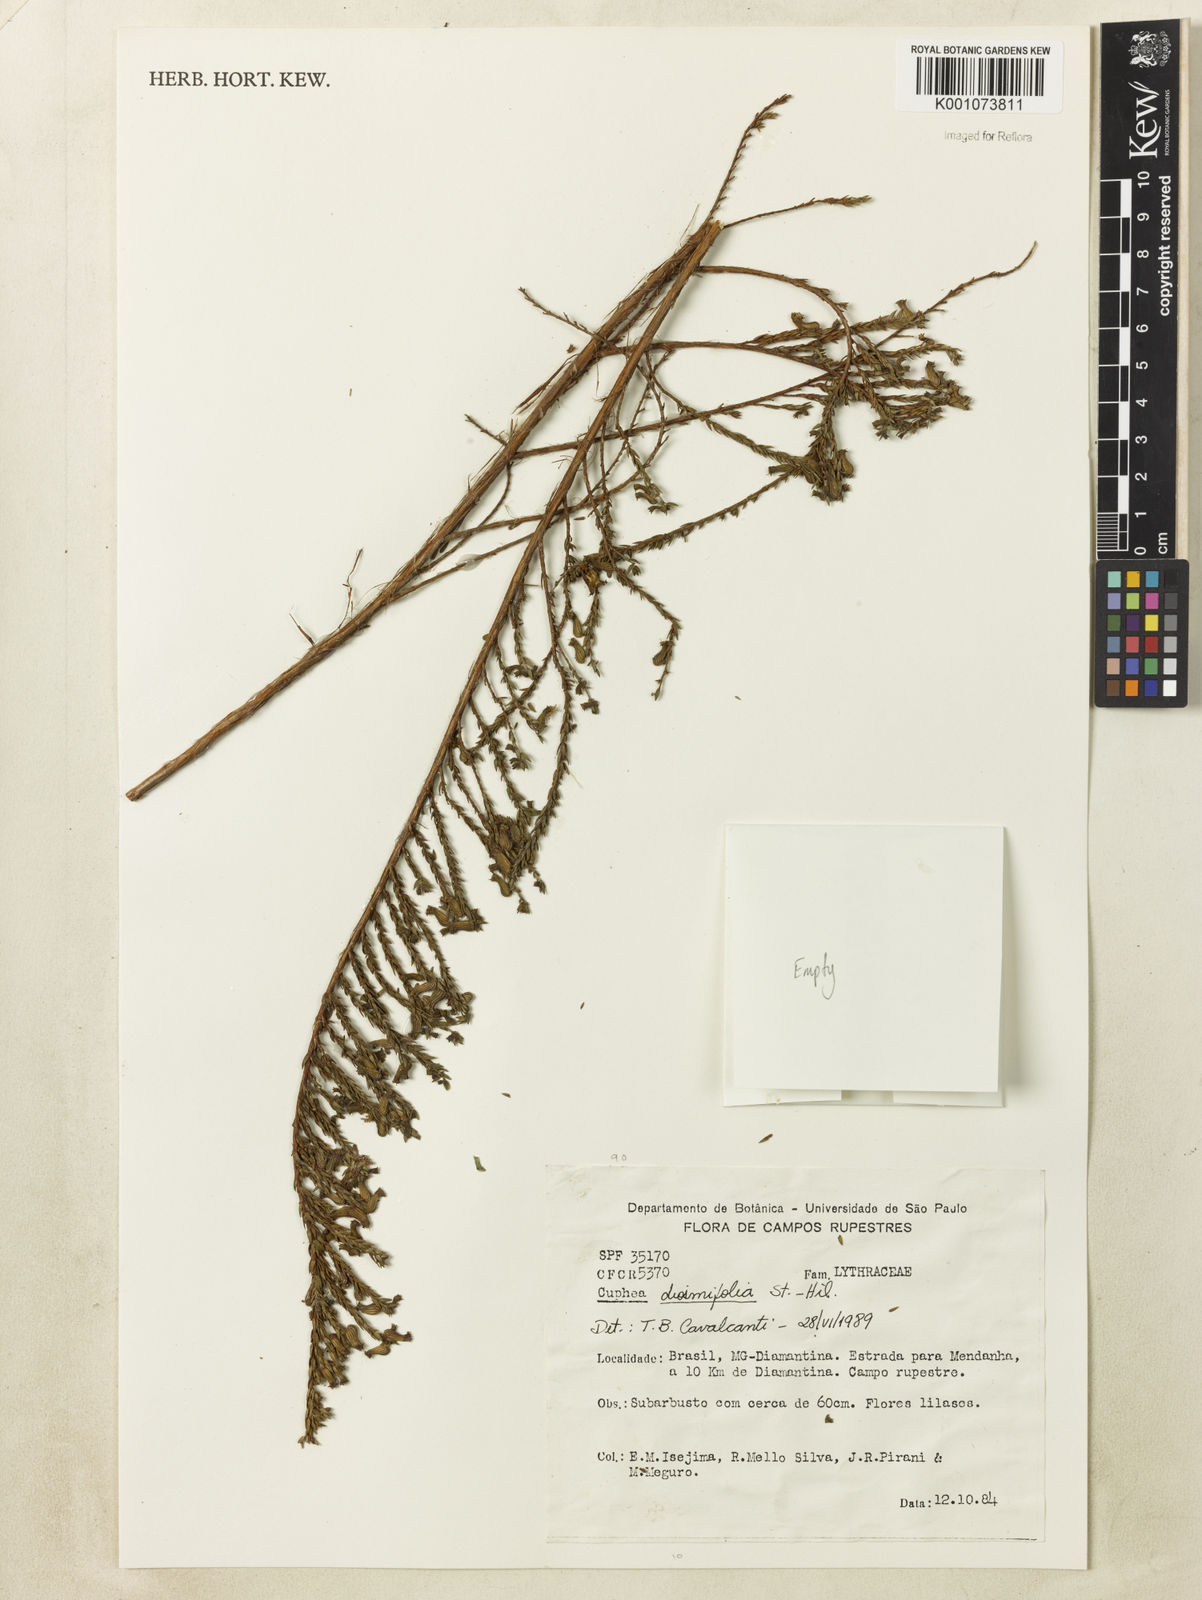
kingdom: Plantae
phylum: Tracheophyta
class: Magnoliopsida
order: Myrtales
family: Lythraceae
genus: Cuphea
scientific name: Cuphea diosmifolia
